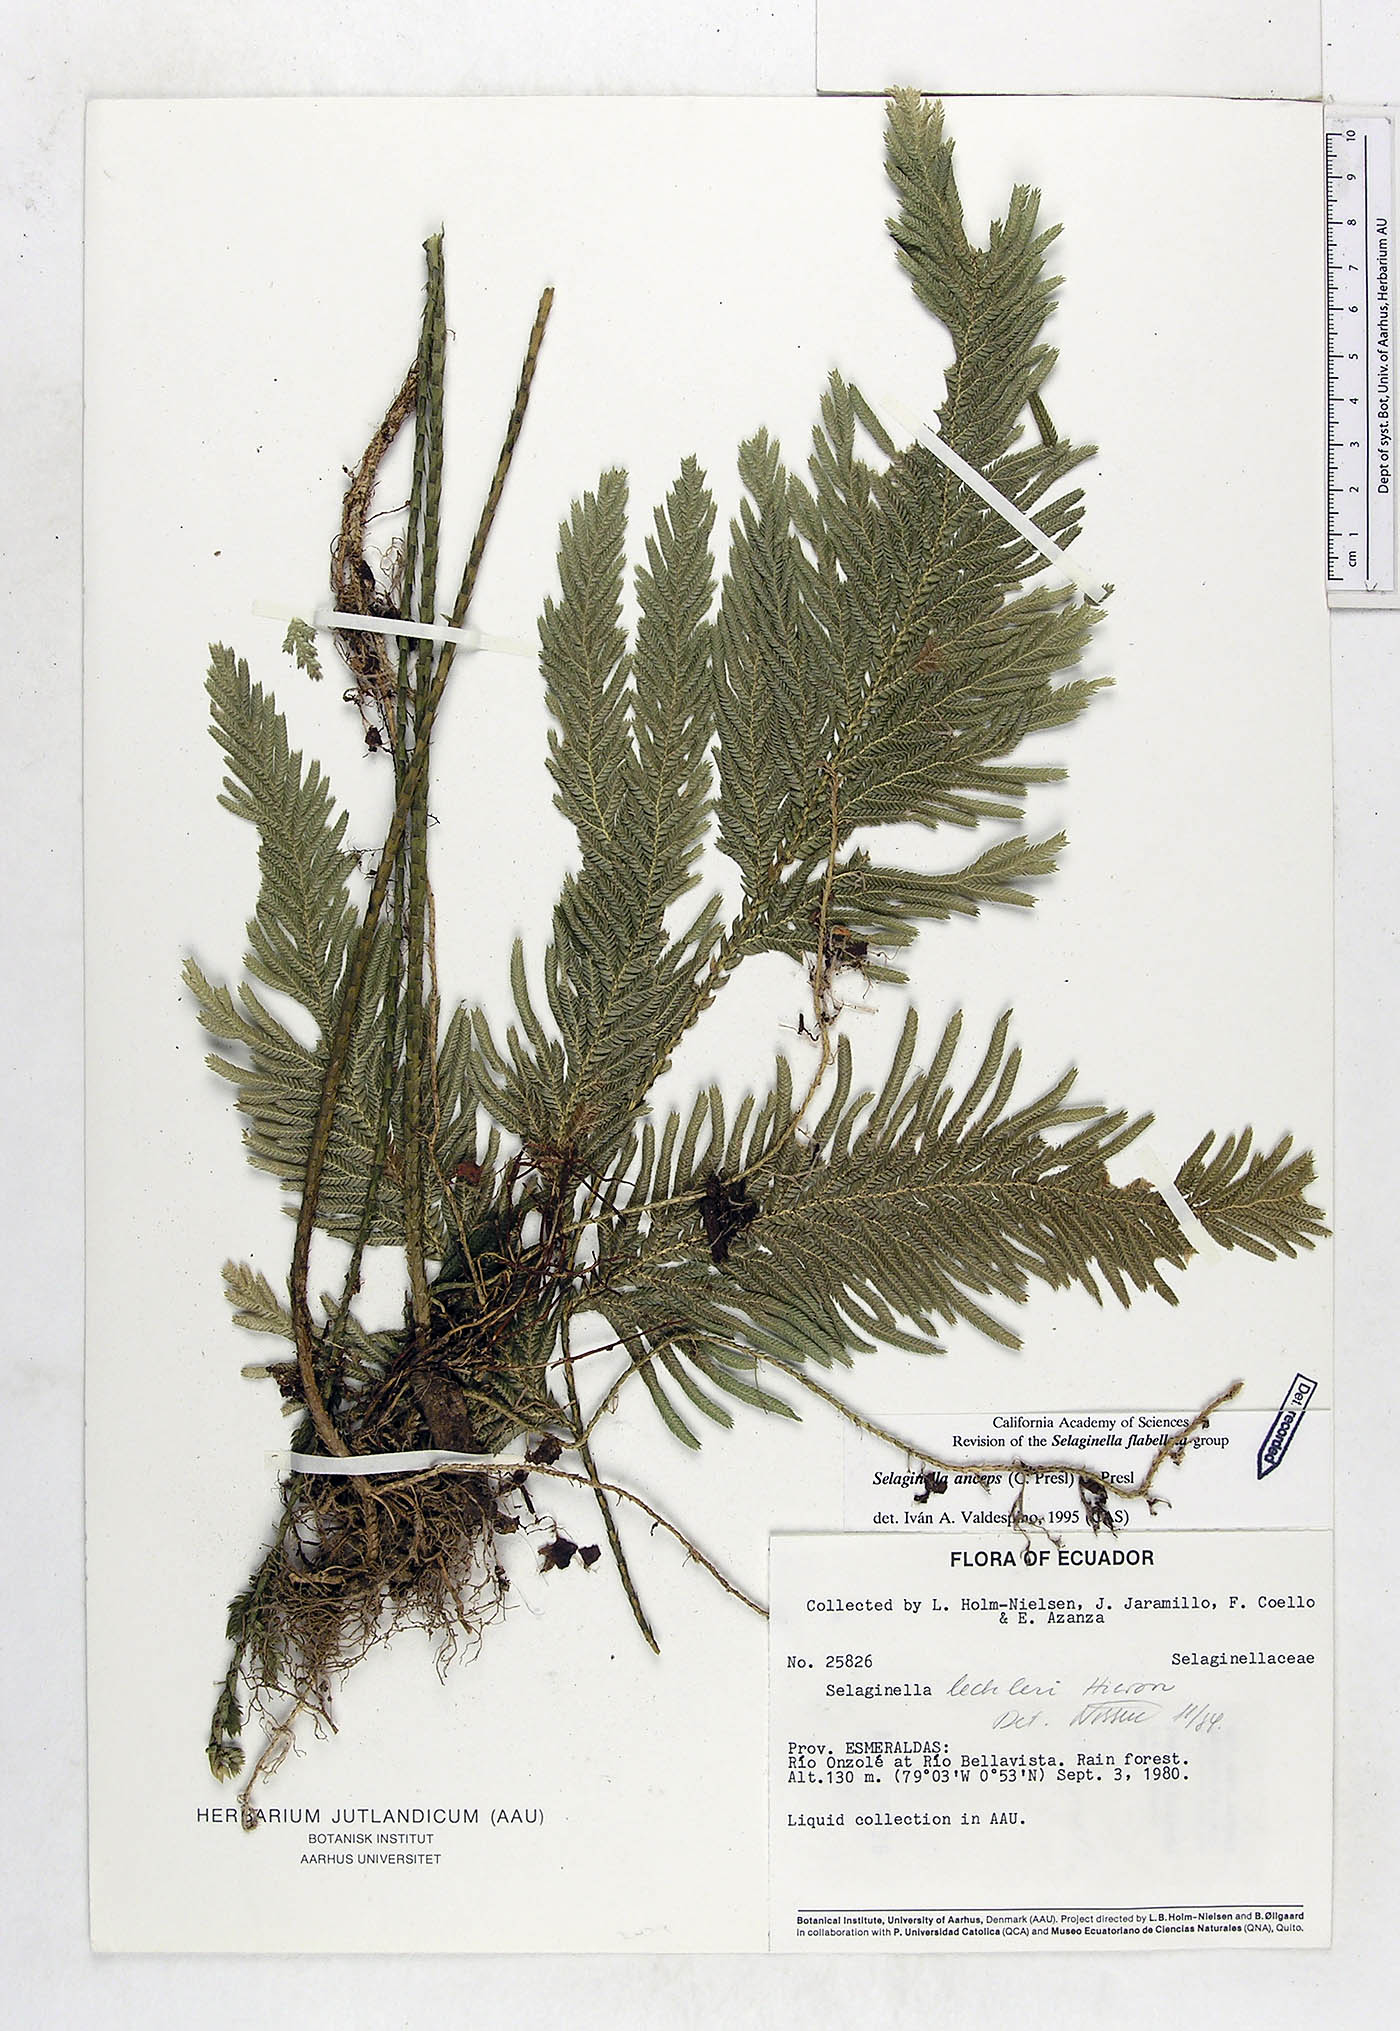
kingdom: Plantae
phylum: Tracheophyta
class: Lycopodiopsida
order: Selaginellales
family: Selaginellaceae
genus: Selaginella
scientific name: Selaginella anceps
